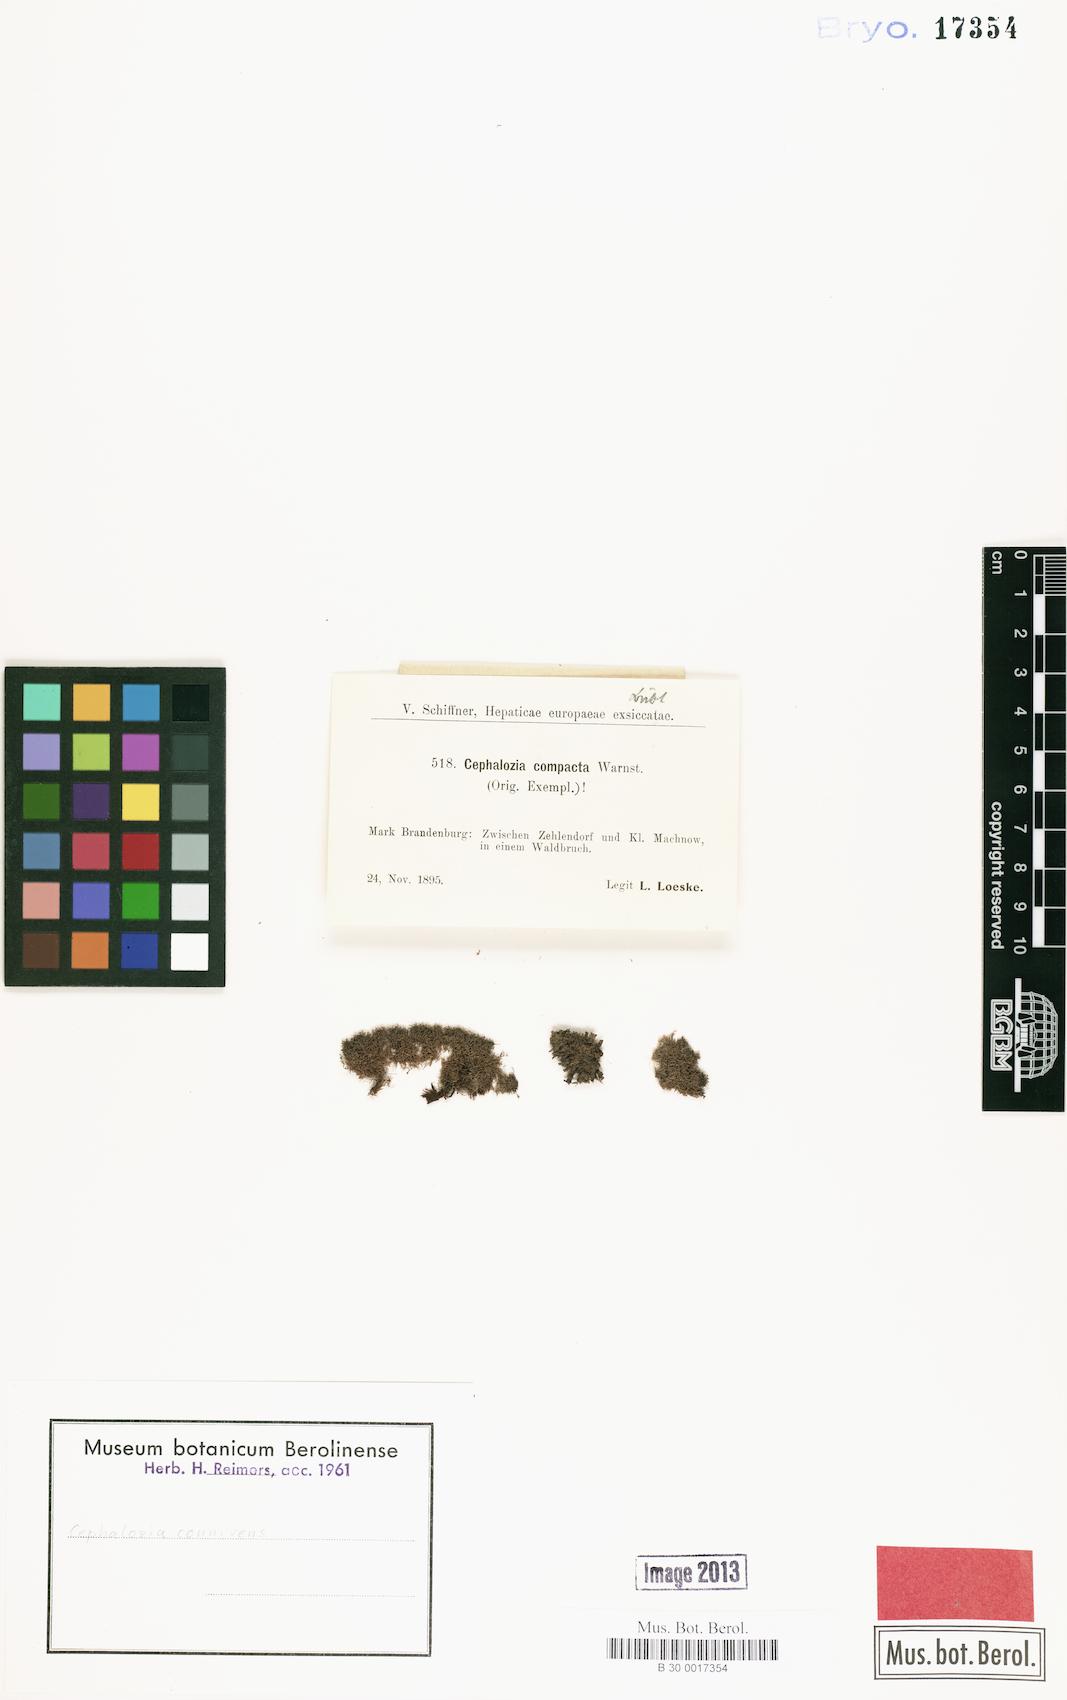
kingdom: Plantae
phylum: Marchantiophyta
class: Jungermanniopsida
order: Jungermanniales
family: Cephaloziaceae
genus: Fuscocephaloziopsis
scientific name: Fuscocephaloziopsis connivens
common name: Forcipated pincerwort
